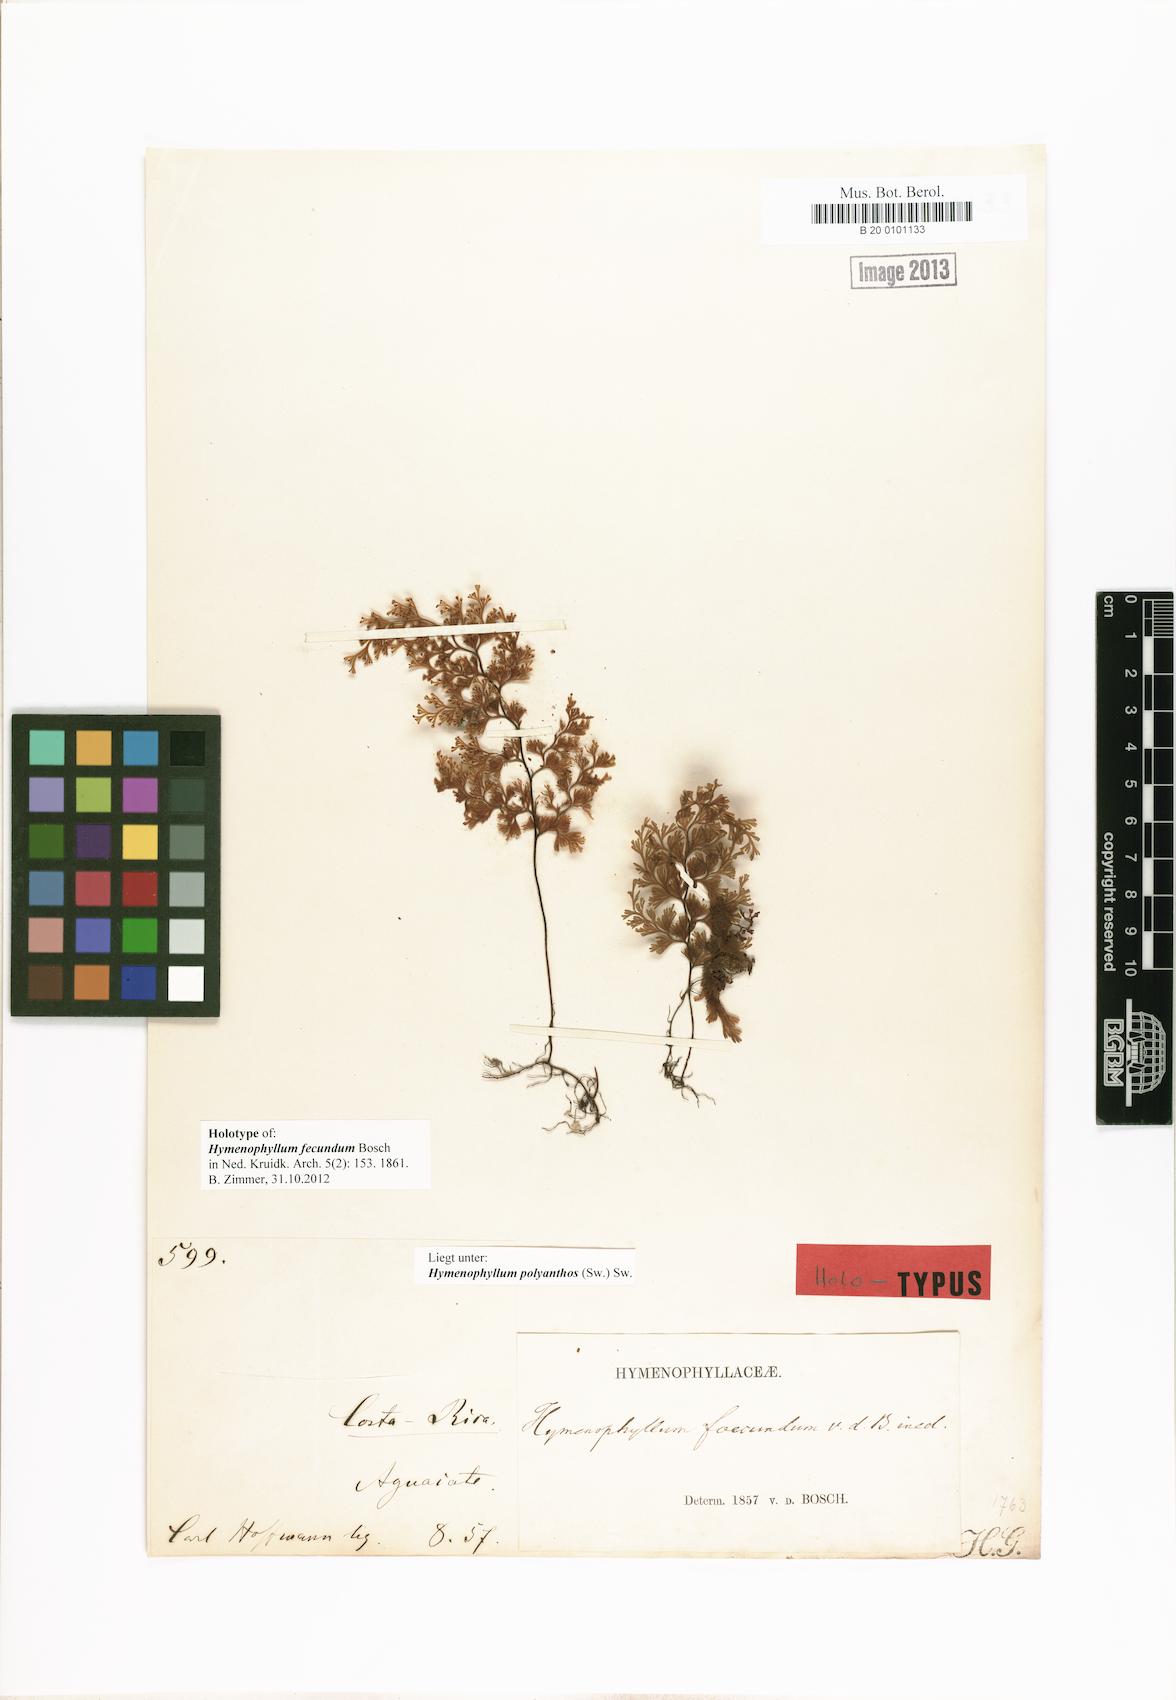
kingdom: Plantae
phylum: Tracheophyta
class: Polypodiopsida
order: Hymenophyllales
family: Hymenophyllaceae
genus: Hymenophyllum
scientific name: Hymenophyllum polyanthos
